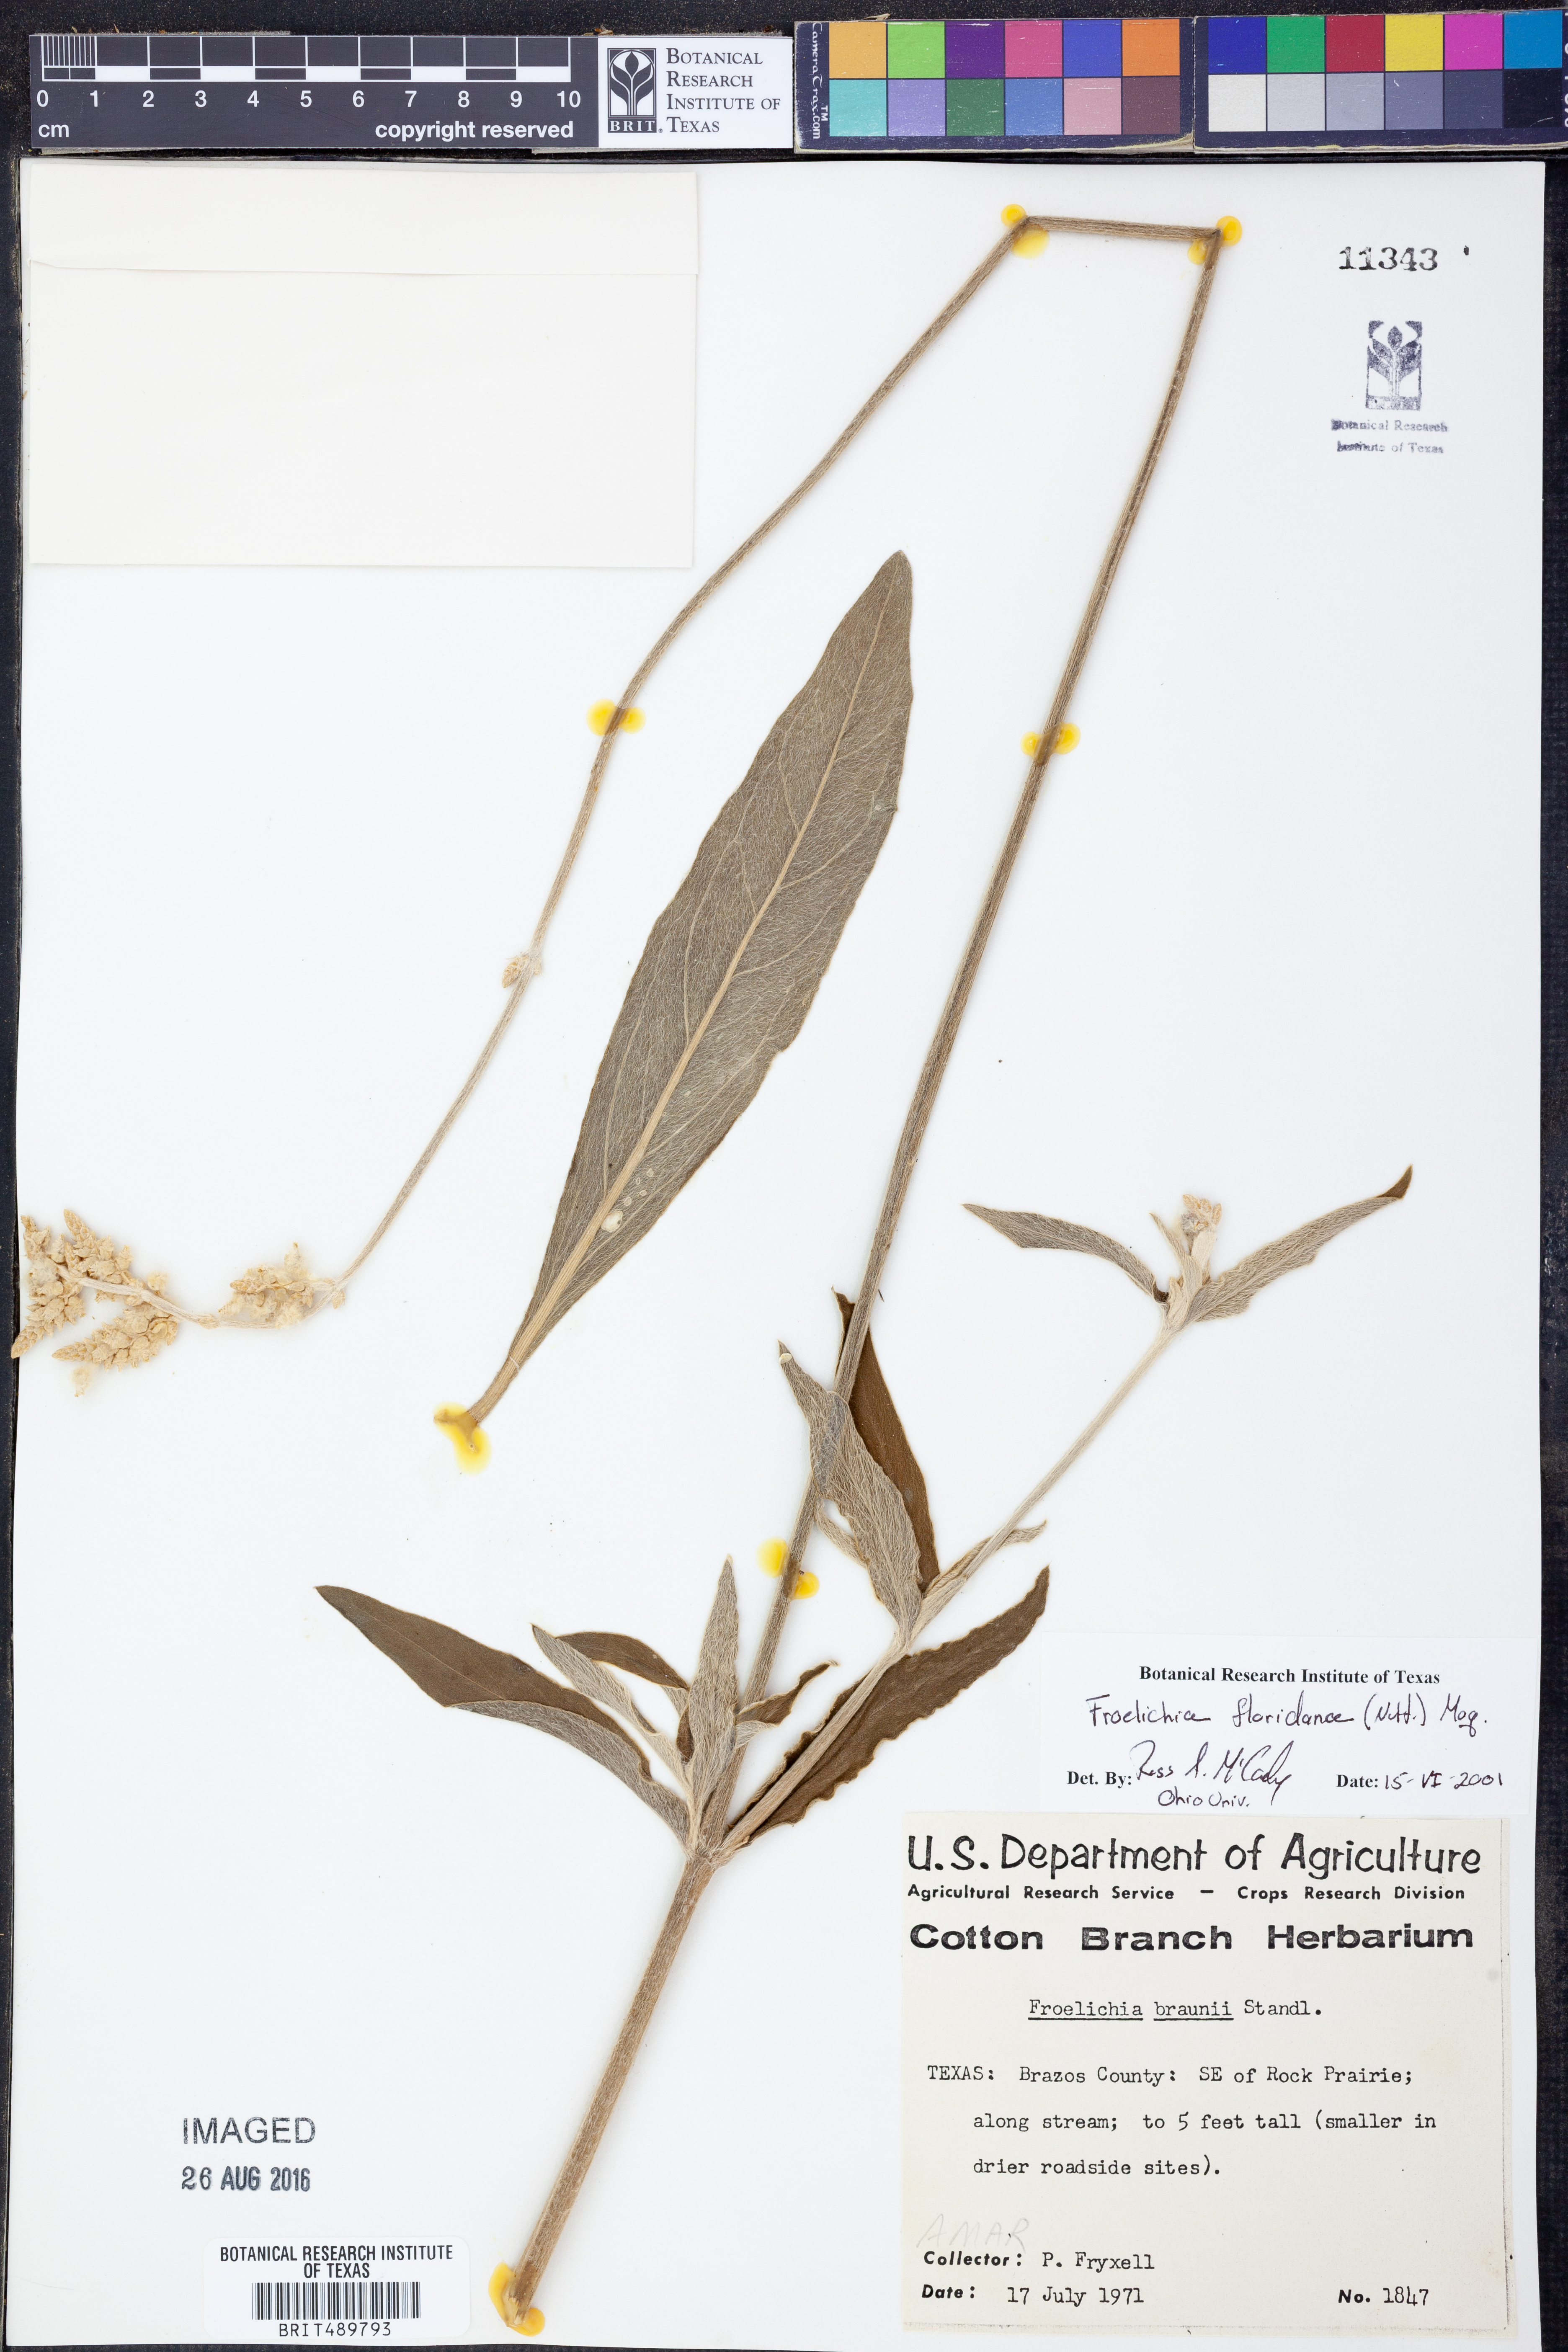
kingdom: Plantae
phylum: Tracheophyta
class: Magnoliopsida
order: Caryophyllales
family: Amaranthaceae
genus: Froelichia
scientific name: Froelichia floridana
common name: Florida snake-cotton
